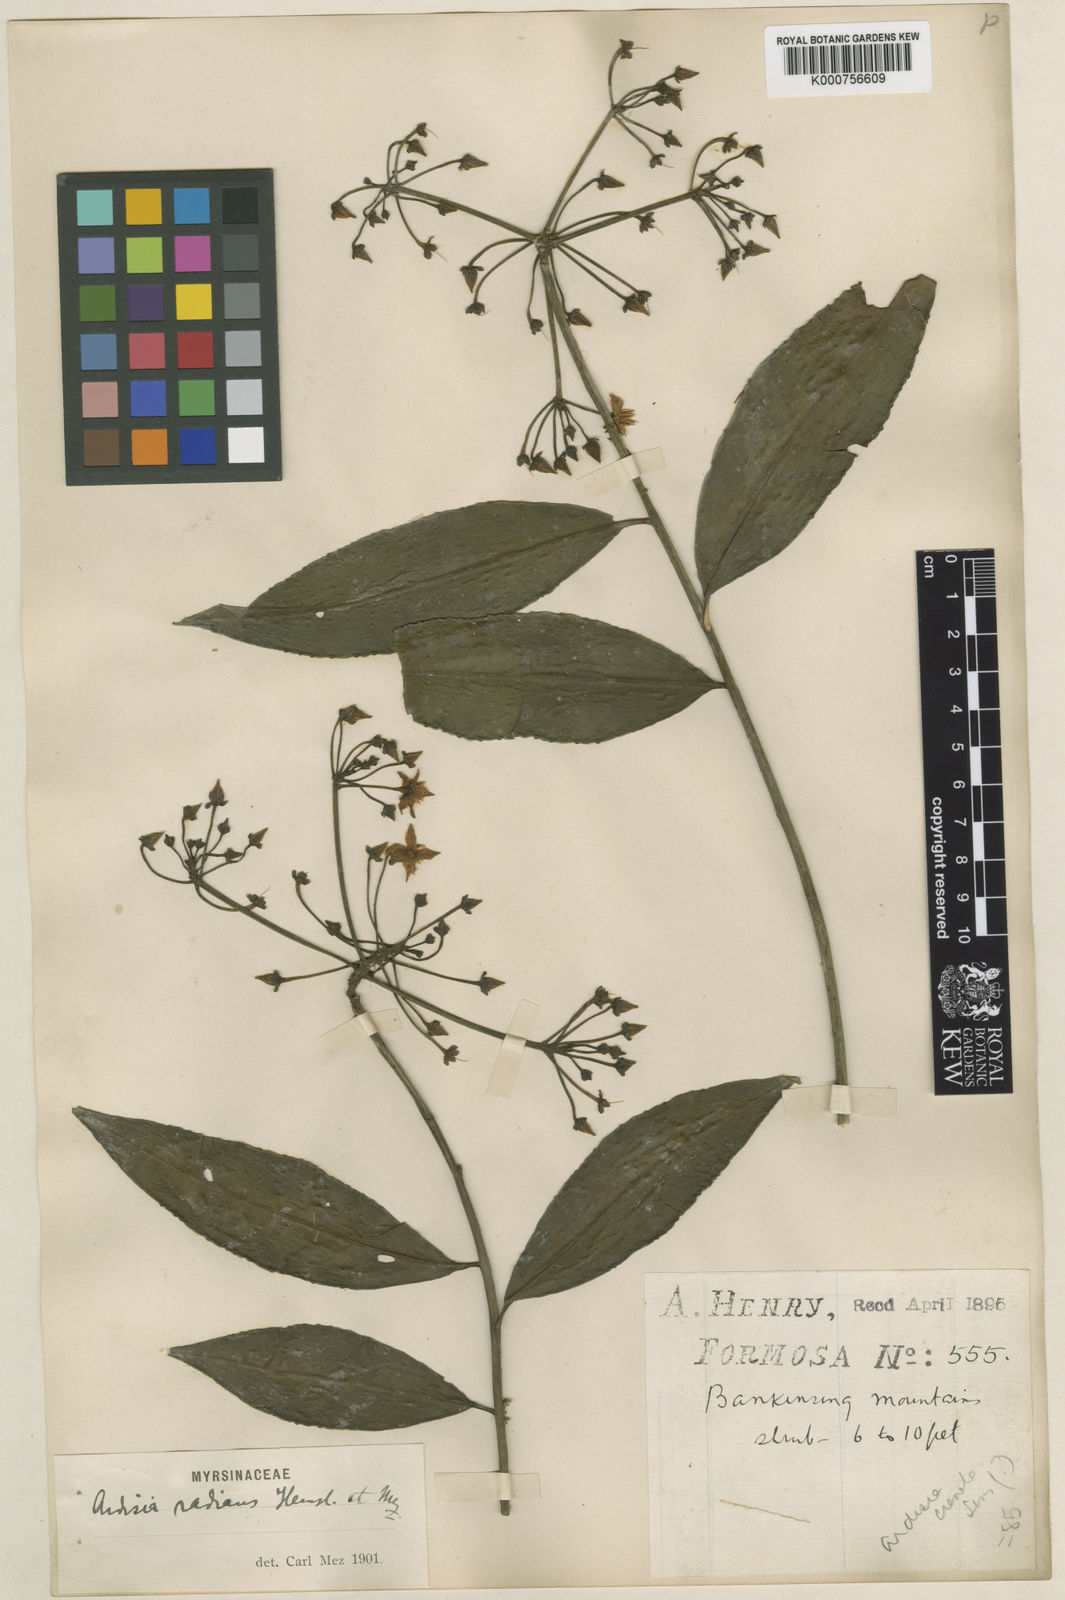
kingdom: Plantae
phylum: Tracheophyta
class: Magnoliopsida
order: Ericales
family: Primulaceae
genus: Ardisia
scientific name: Ardisia polysticta
